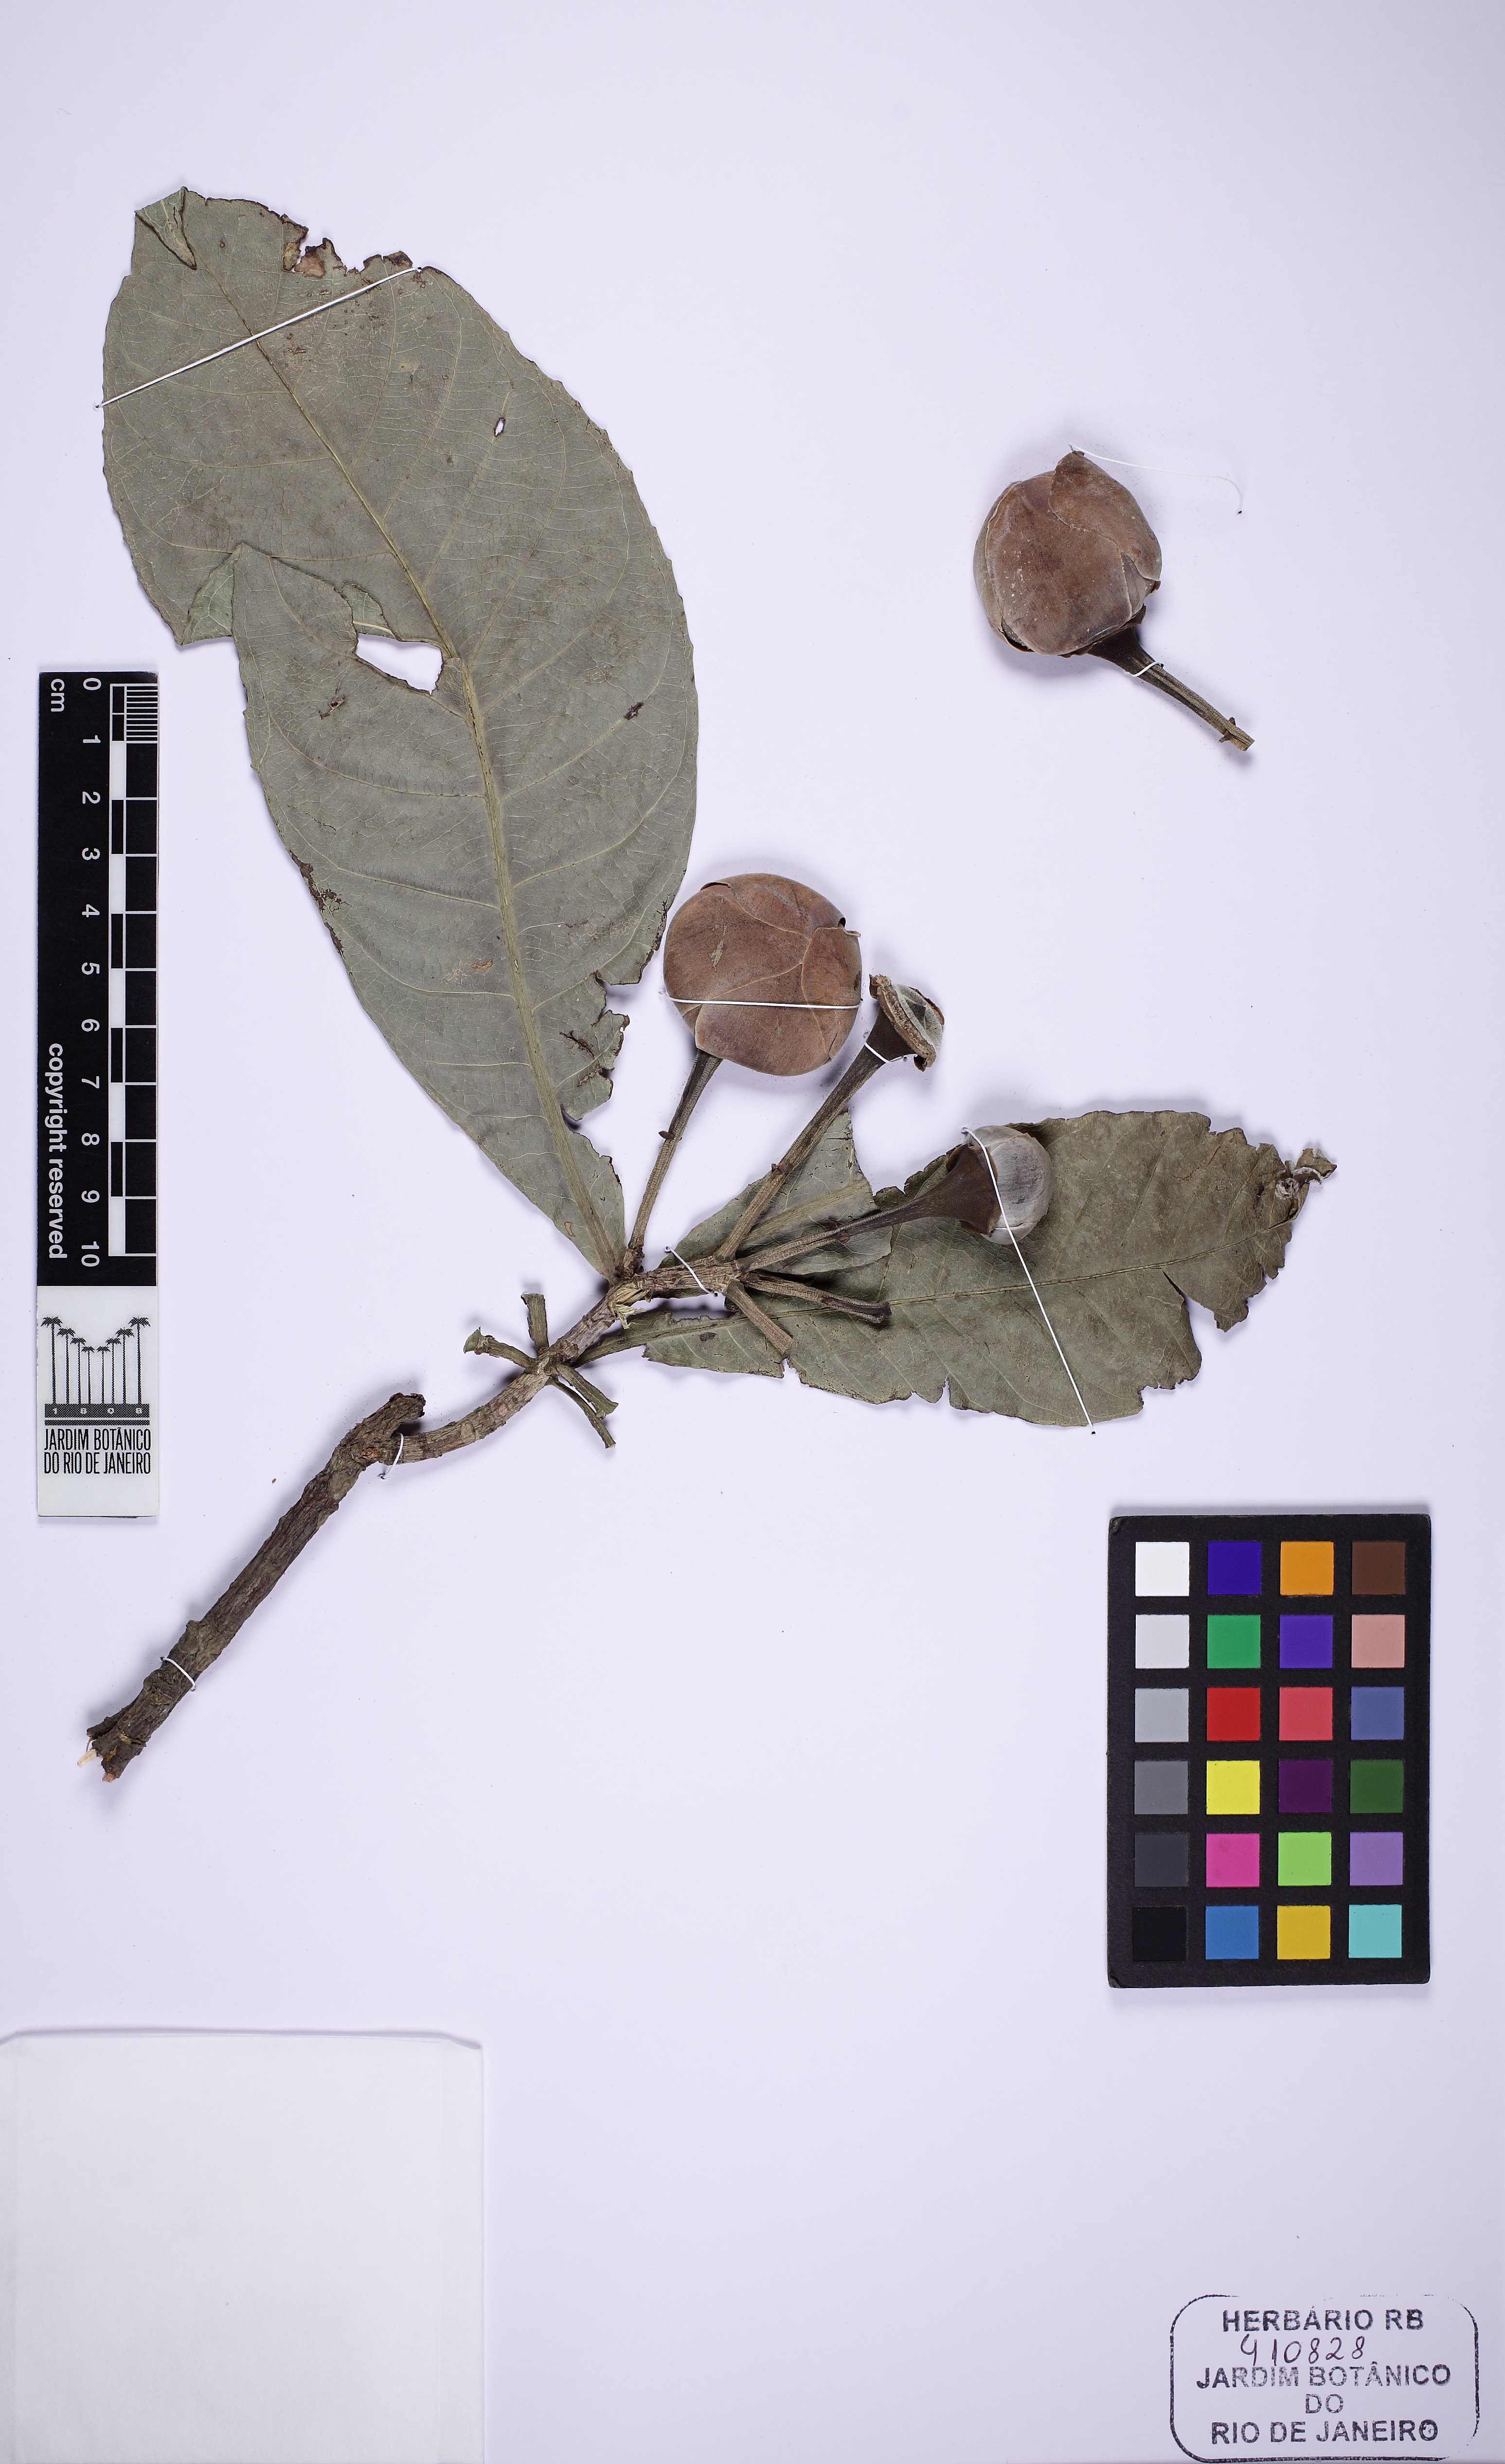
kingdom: Plantae
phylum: Tracheophyta
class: Magnoliopsida
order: Ericales
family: Lecythidaceae
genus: Gustavia
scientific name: Gustavia augusta
